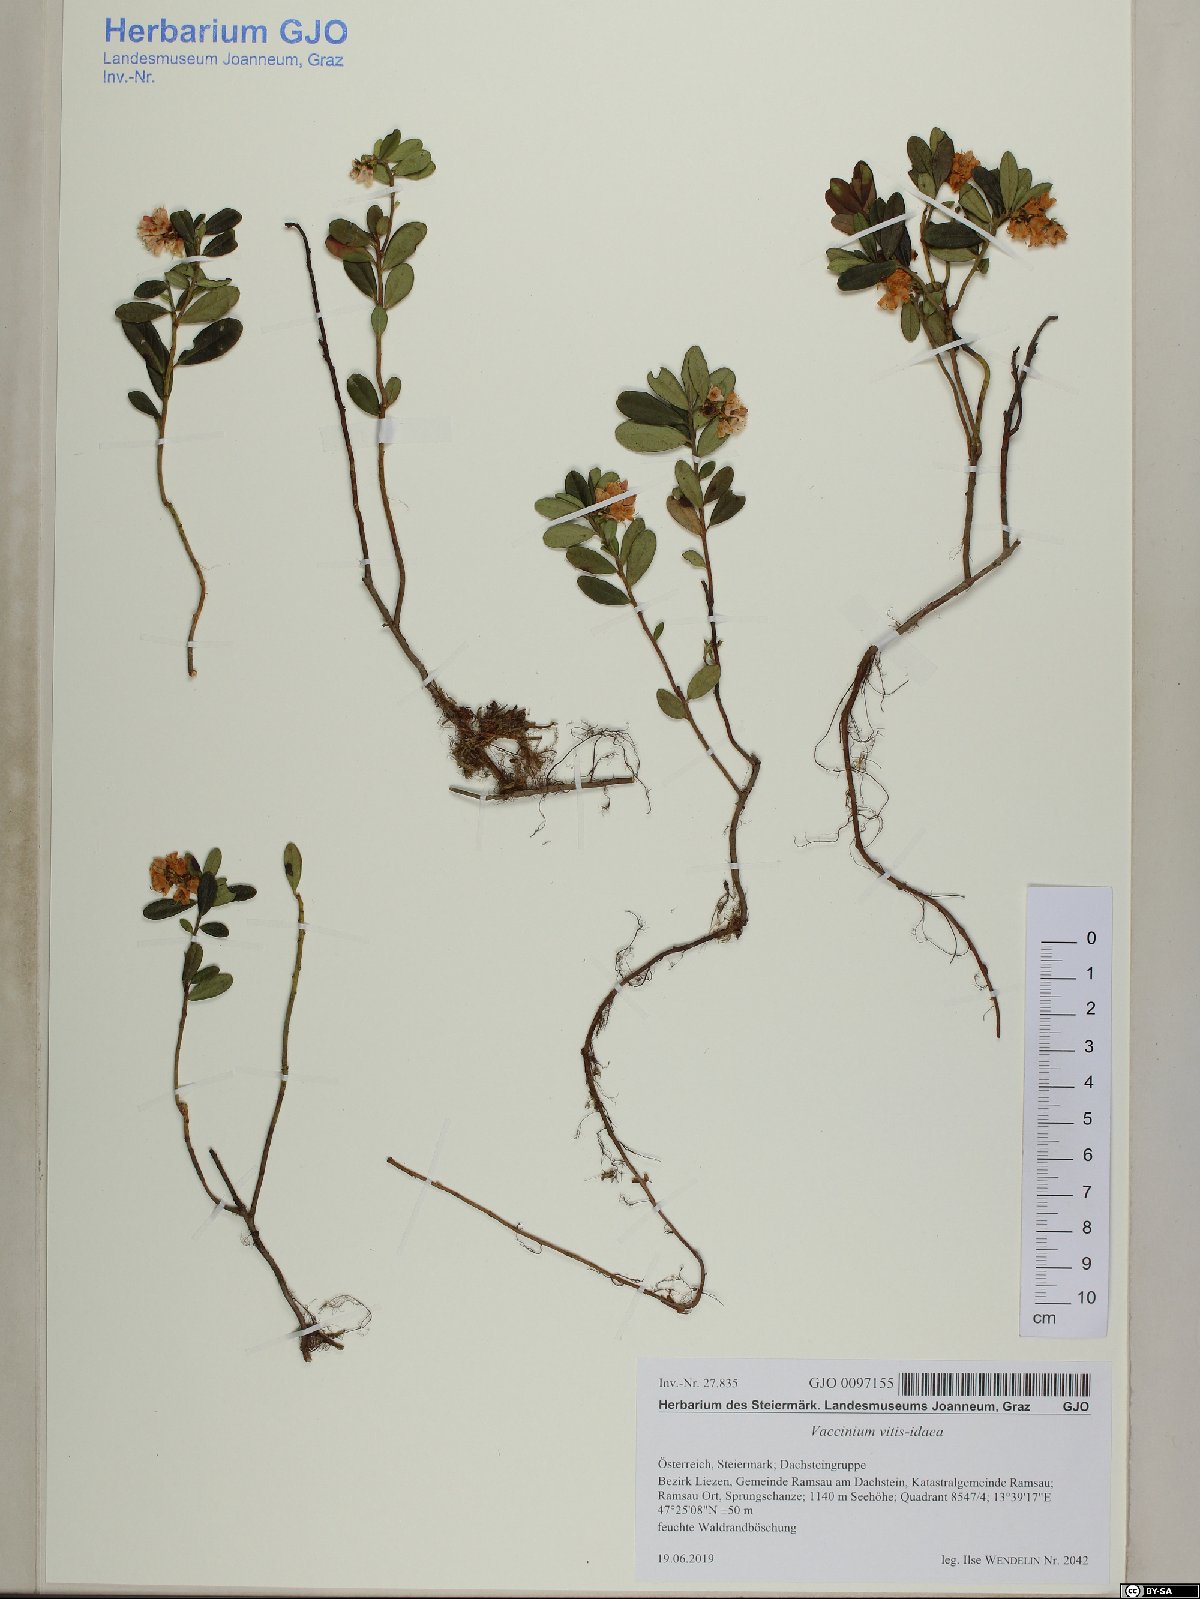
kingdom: Plantae
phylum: Tracheophyta
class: Magnoliopsida
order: Ericales
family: Ericaceae
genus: Vaccinium
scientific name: Vaccinium vitis-idaea
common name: Cowberry
